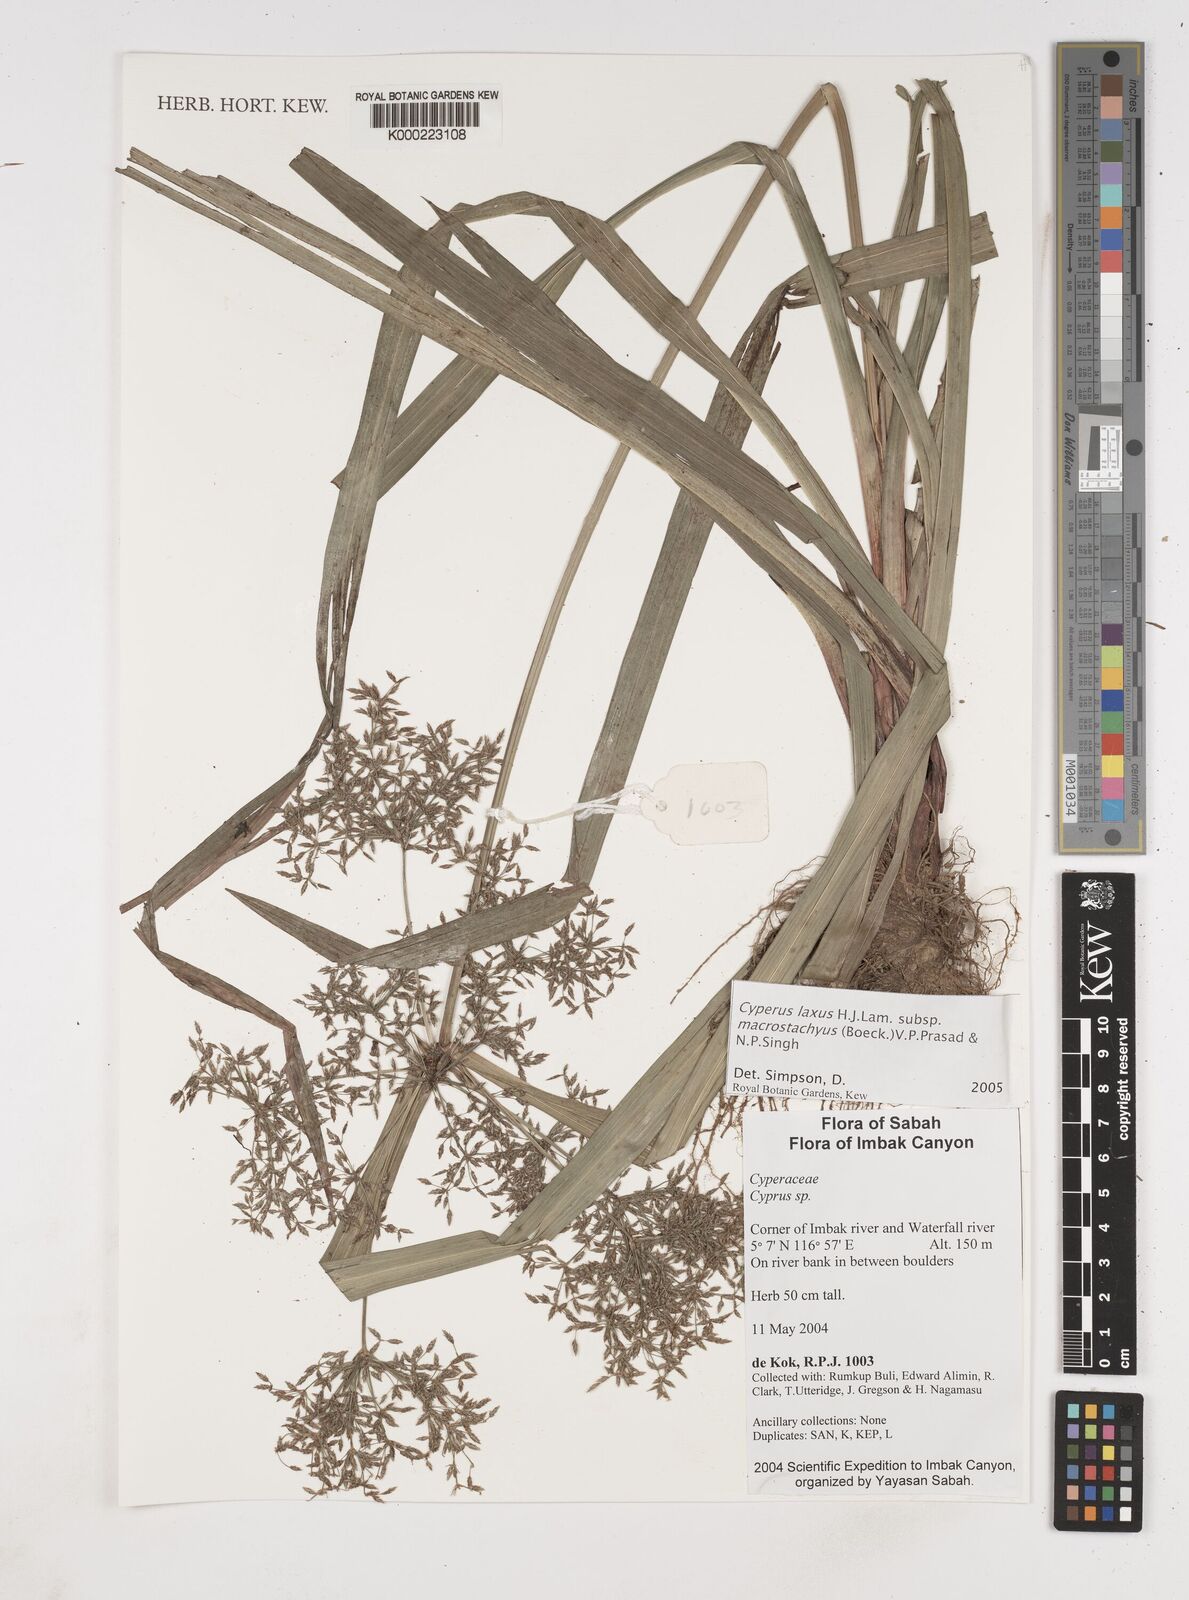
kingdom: Plantae
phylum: Tracheophyta
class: Liliopsida
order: Poales
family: Cyperaceae
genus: Cyperus
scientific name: Cyperus diffusus
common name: Dwarf umbrella grass
